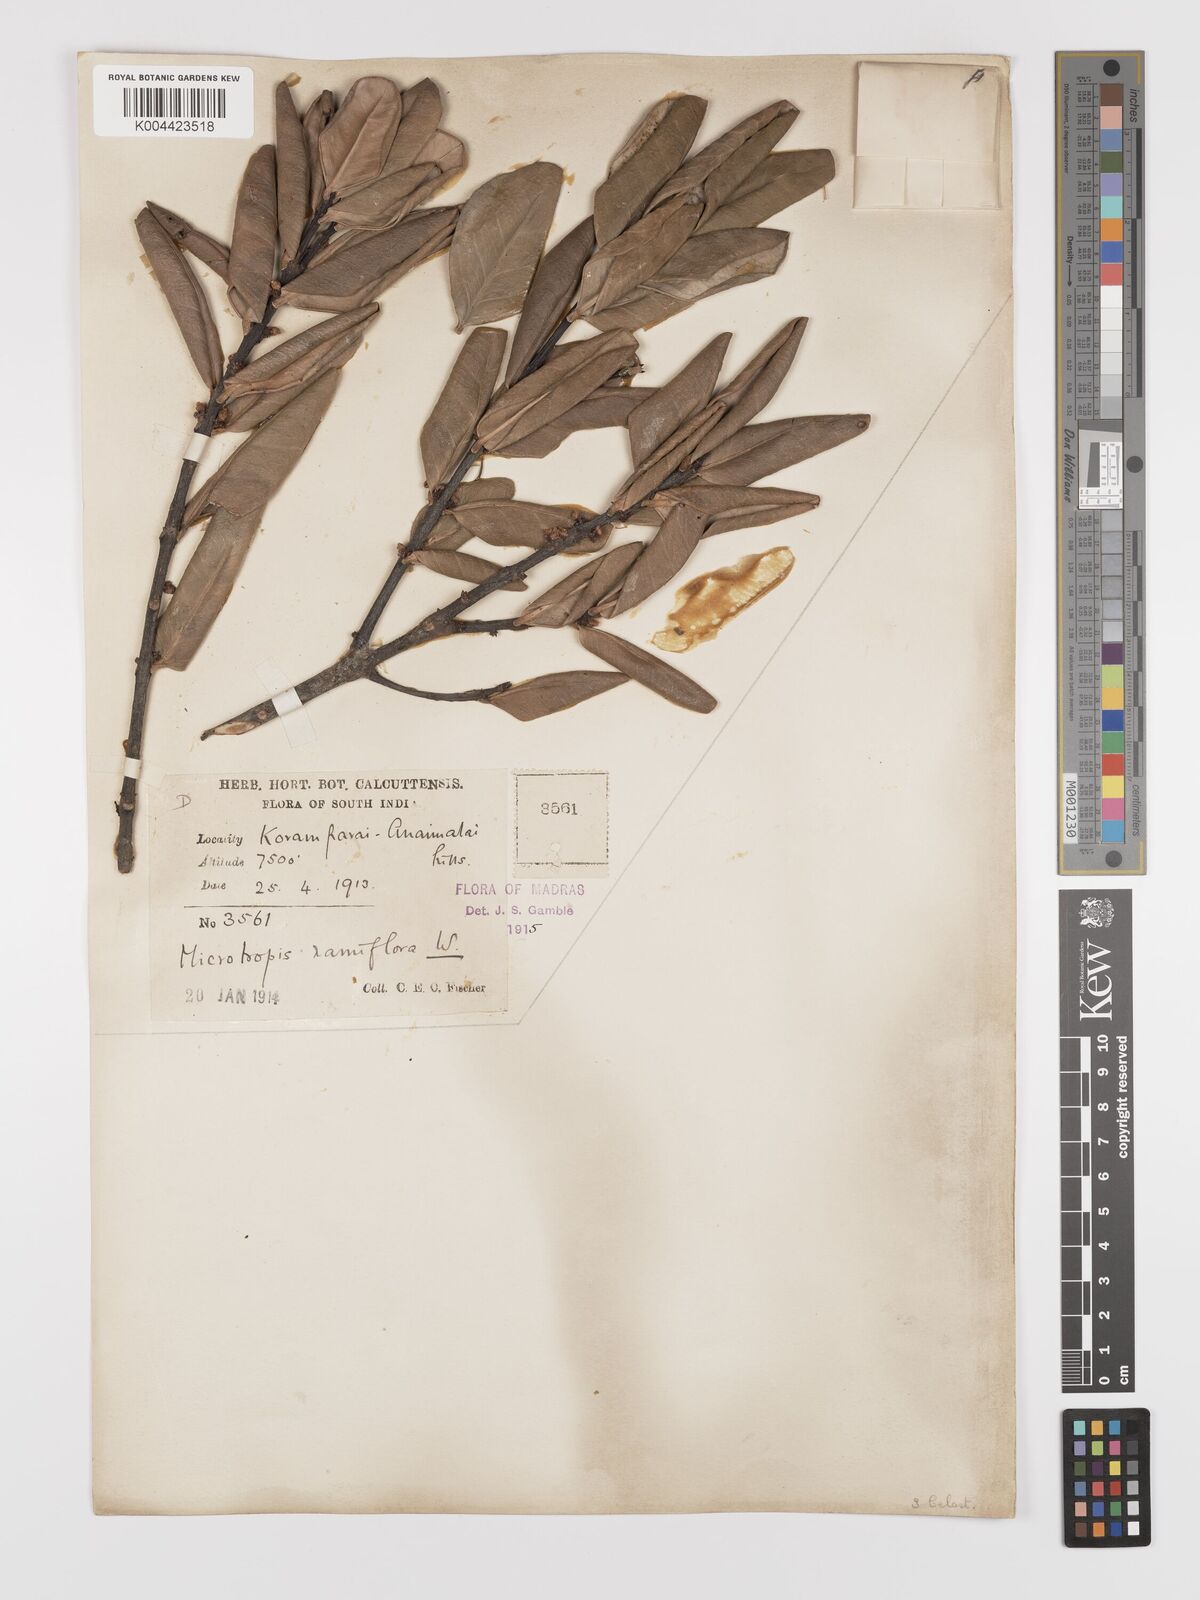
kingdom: Plantae
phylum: Tracheophyta
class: Magnoliopsida
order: Celastrales
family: Celastraceae
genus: Microtropis
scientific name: Microtropis ramiflora
